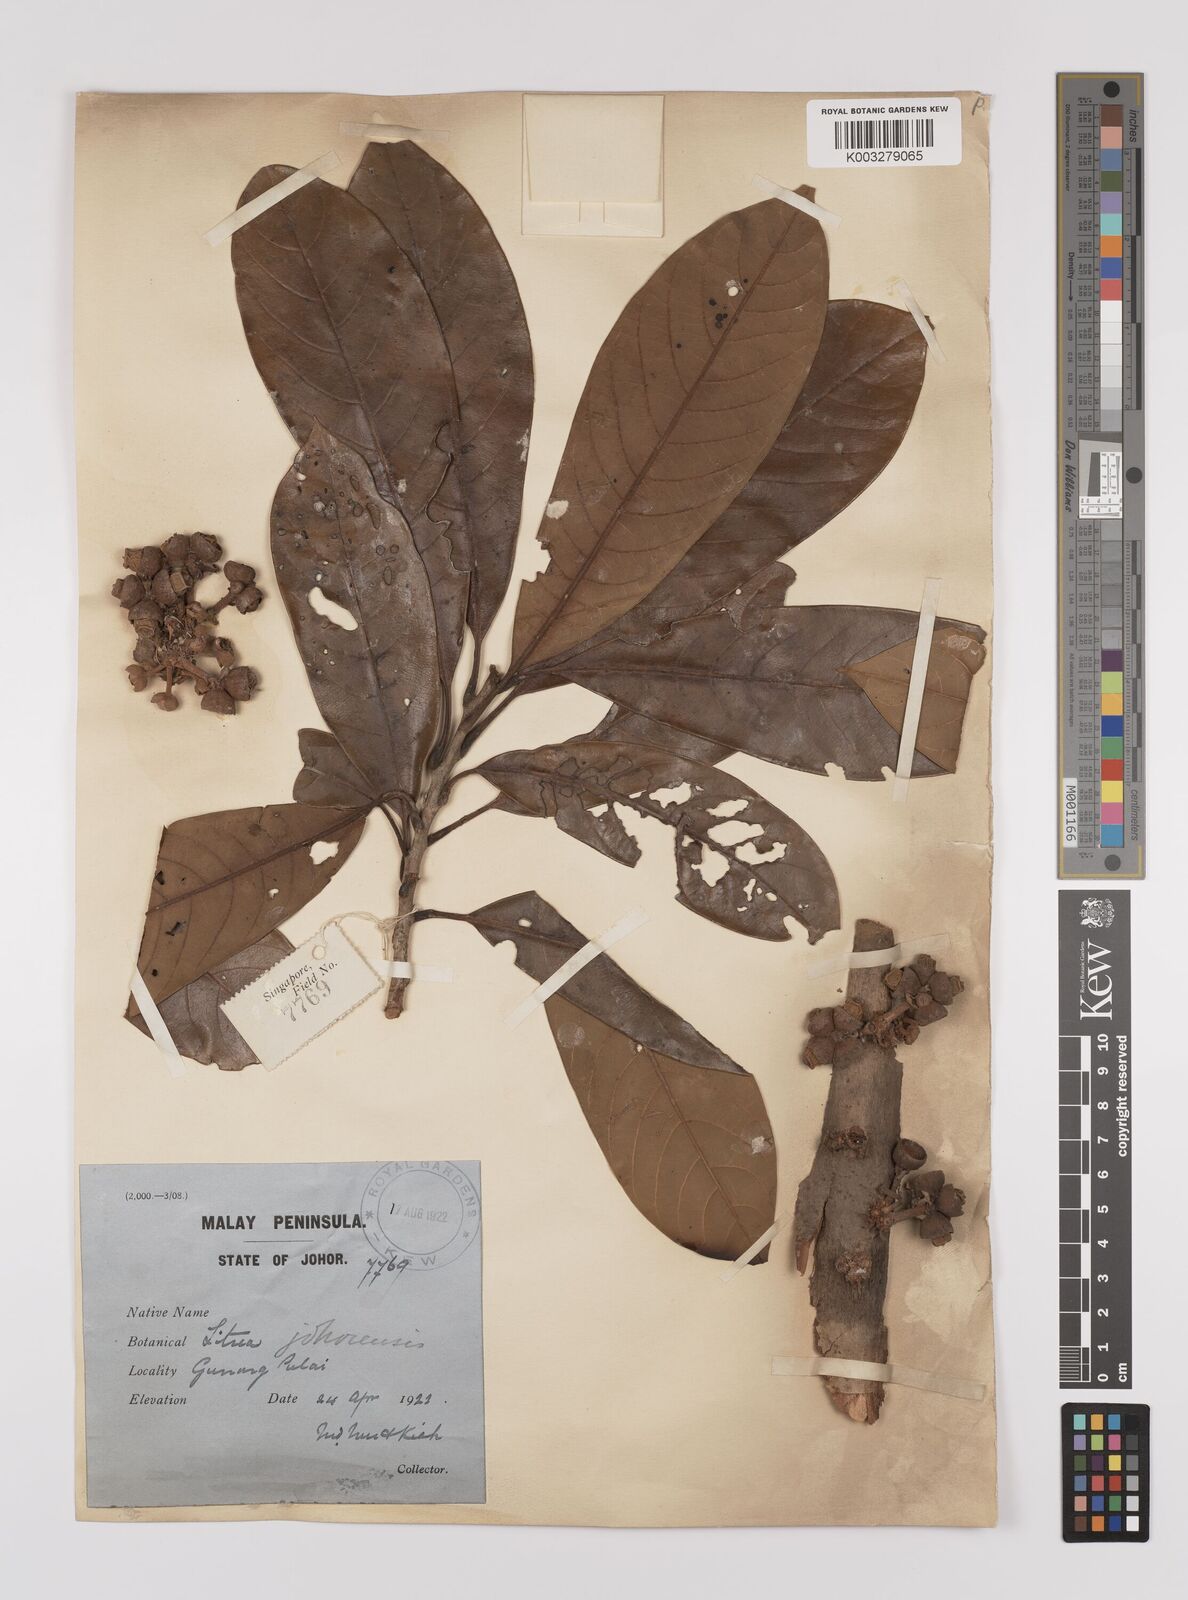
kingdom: Plantae
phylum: Tracheophyta
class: Magnoliopsida
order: Laurales
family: Lauraceae
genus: Litsea
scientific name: Litsea johorensis
